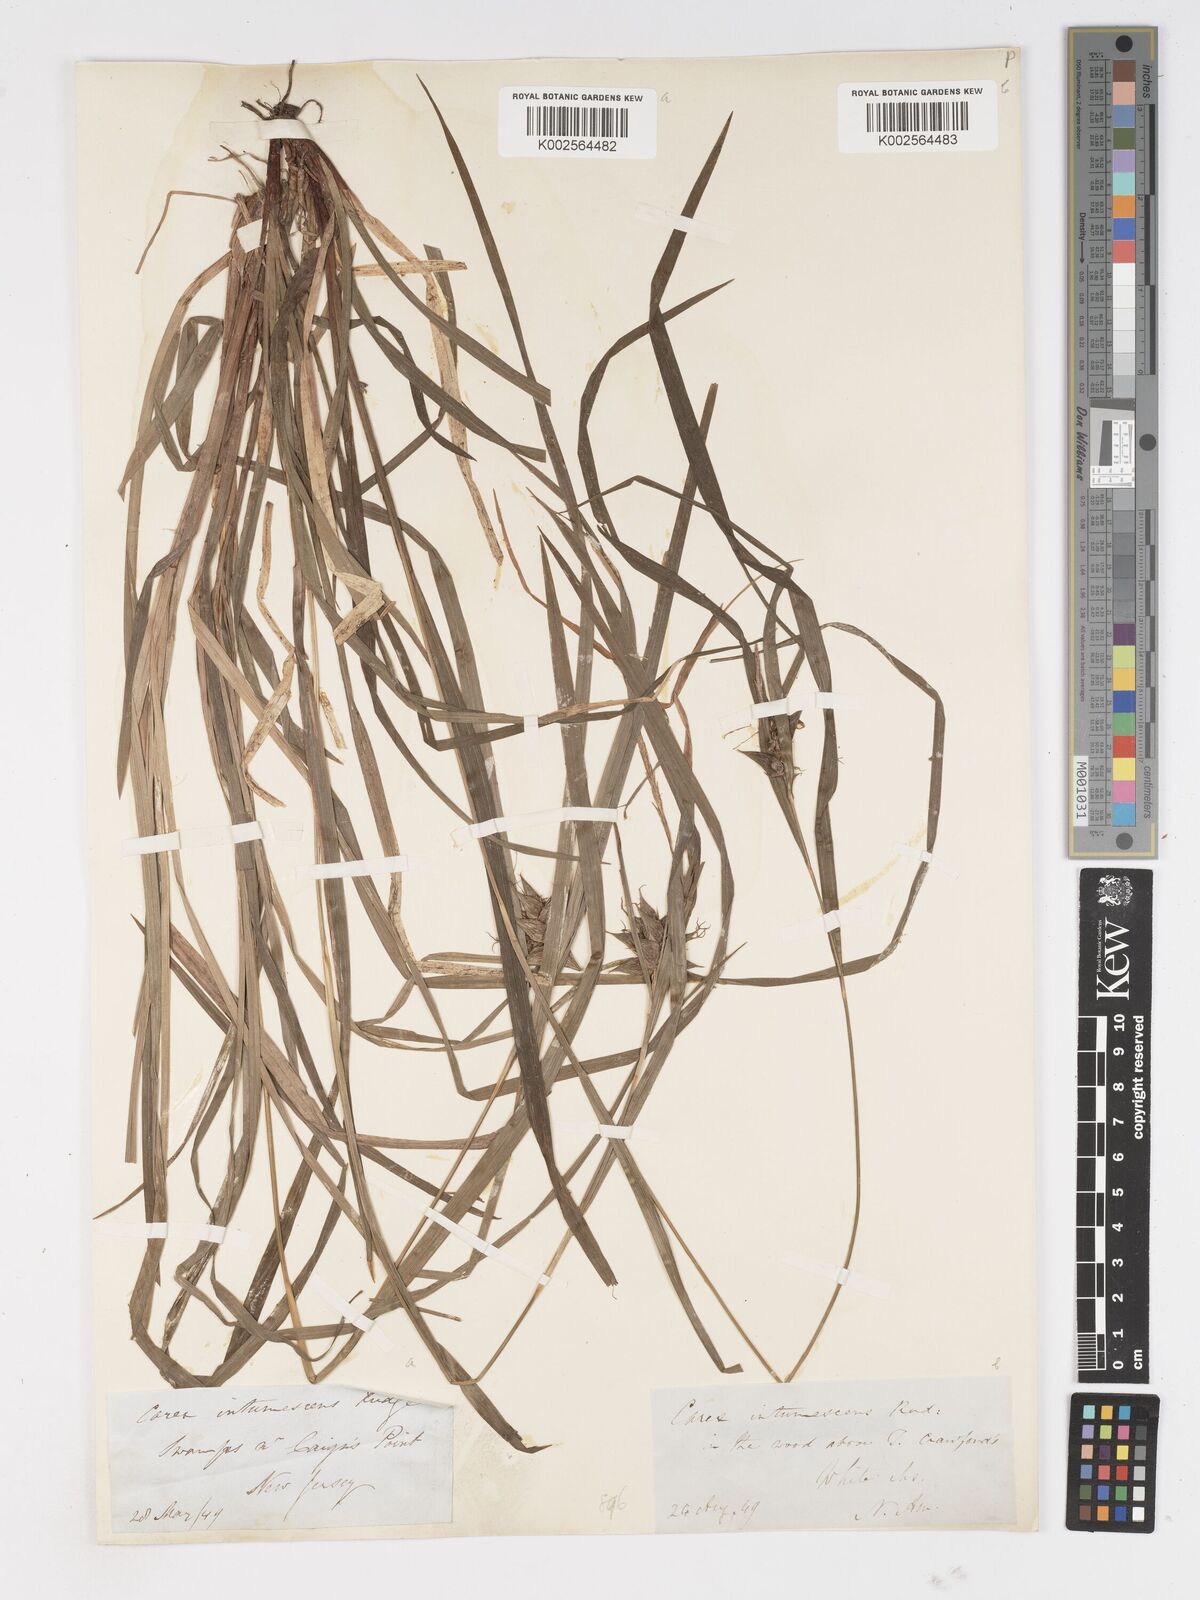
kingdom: Plantae
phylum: Tracheophyta
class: Liliopsida
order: Poales
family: Cyperaceae
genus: Carex
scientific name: Carex intumescens
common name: Greater bladder sedge
